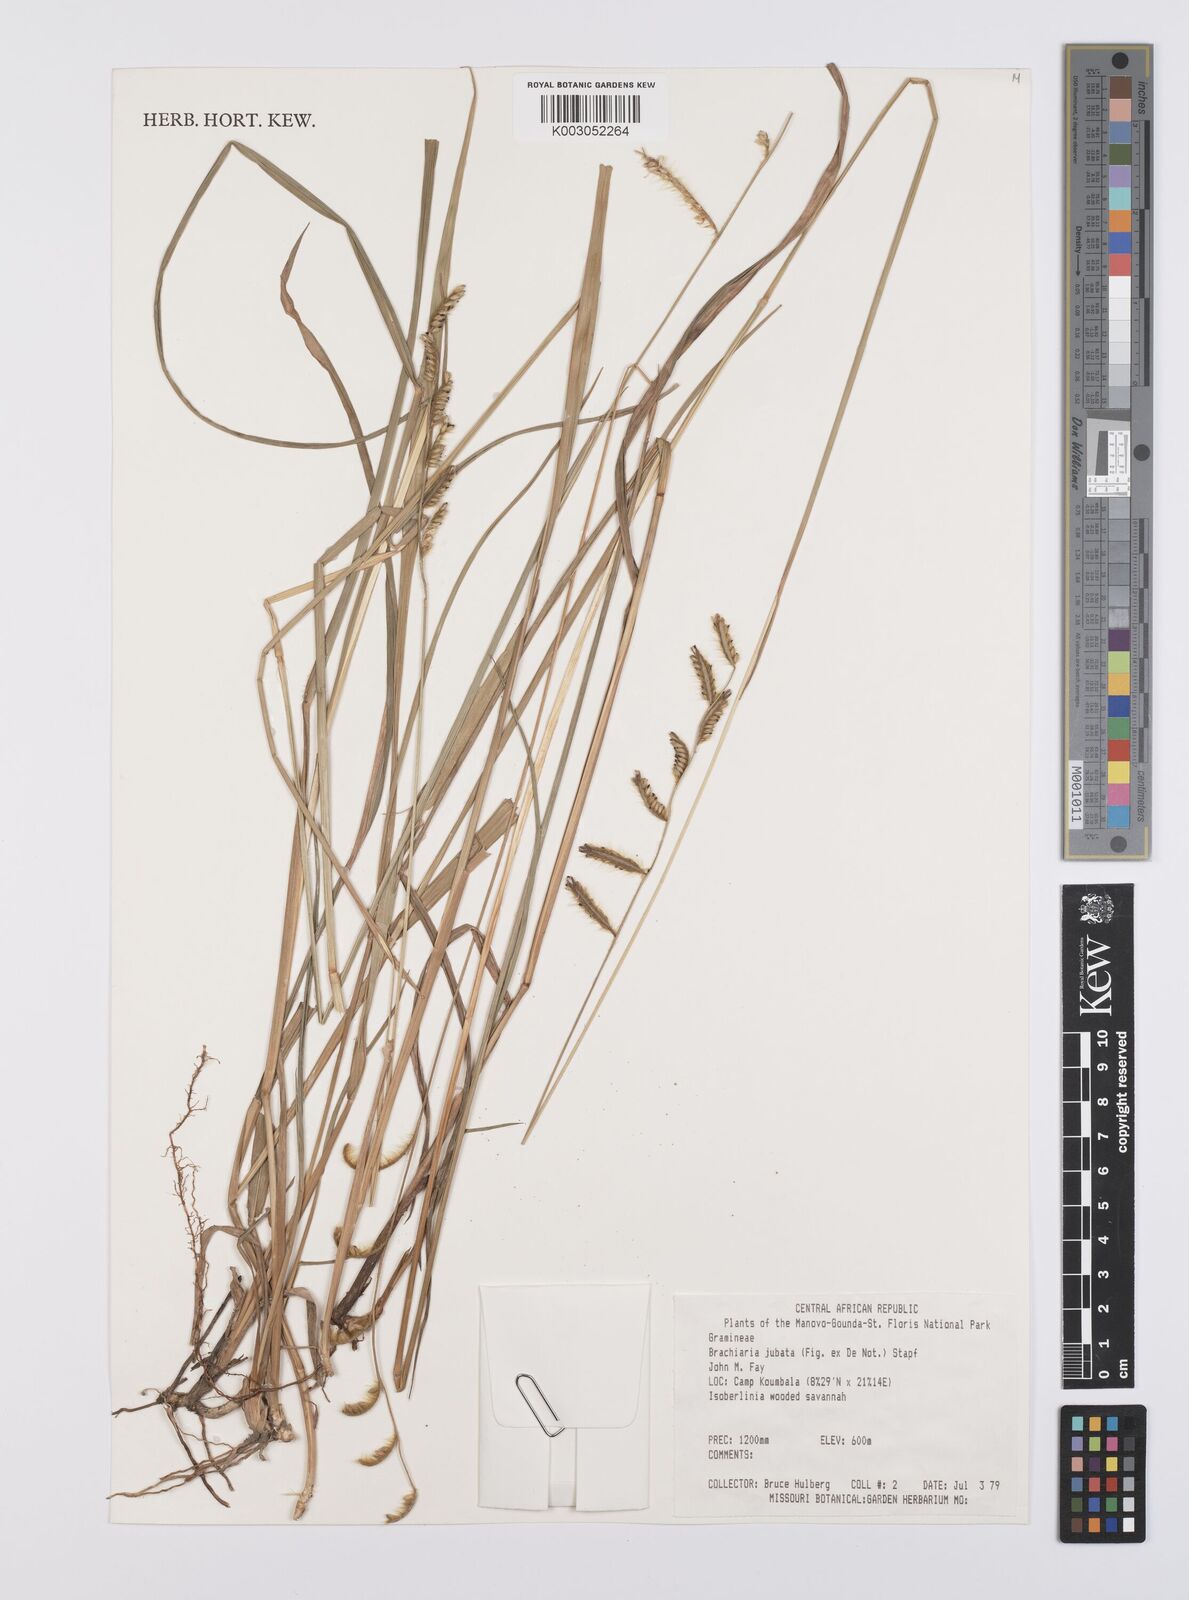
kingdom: Plantae
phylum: Tracheophyta
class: Liliopsida
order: Poales
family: Poaceae
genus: Urochloa
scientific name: Urochloa jubata
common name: Buffalograss
